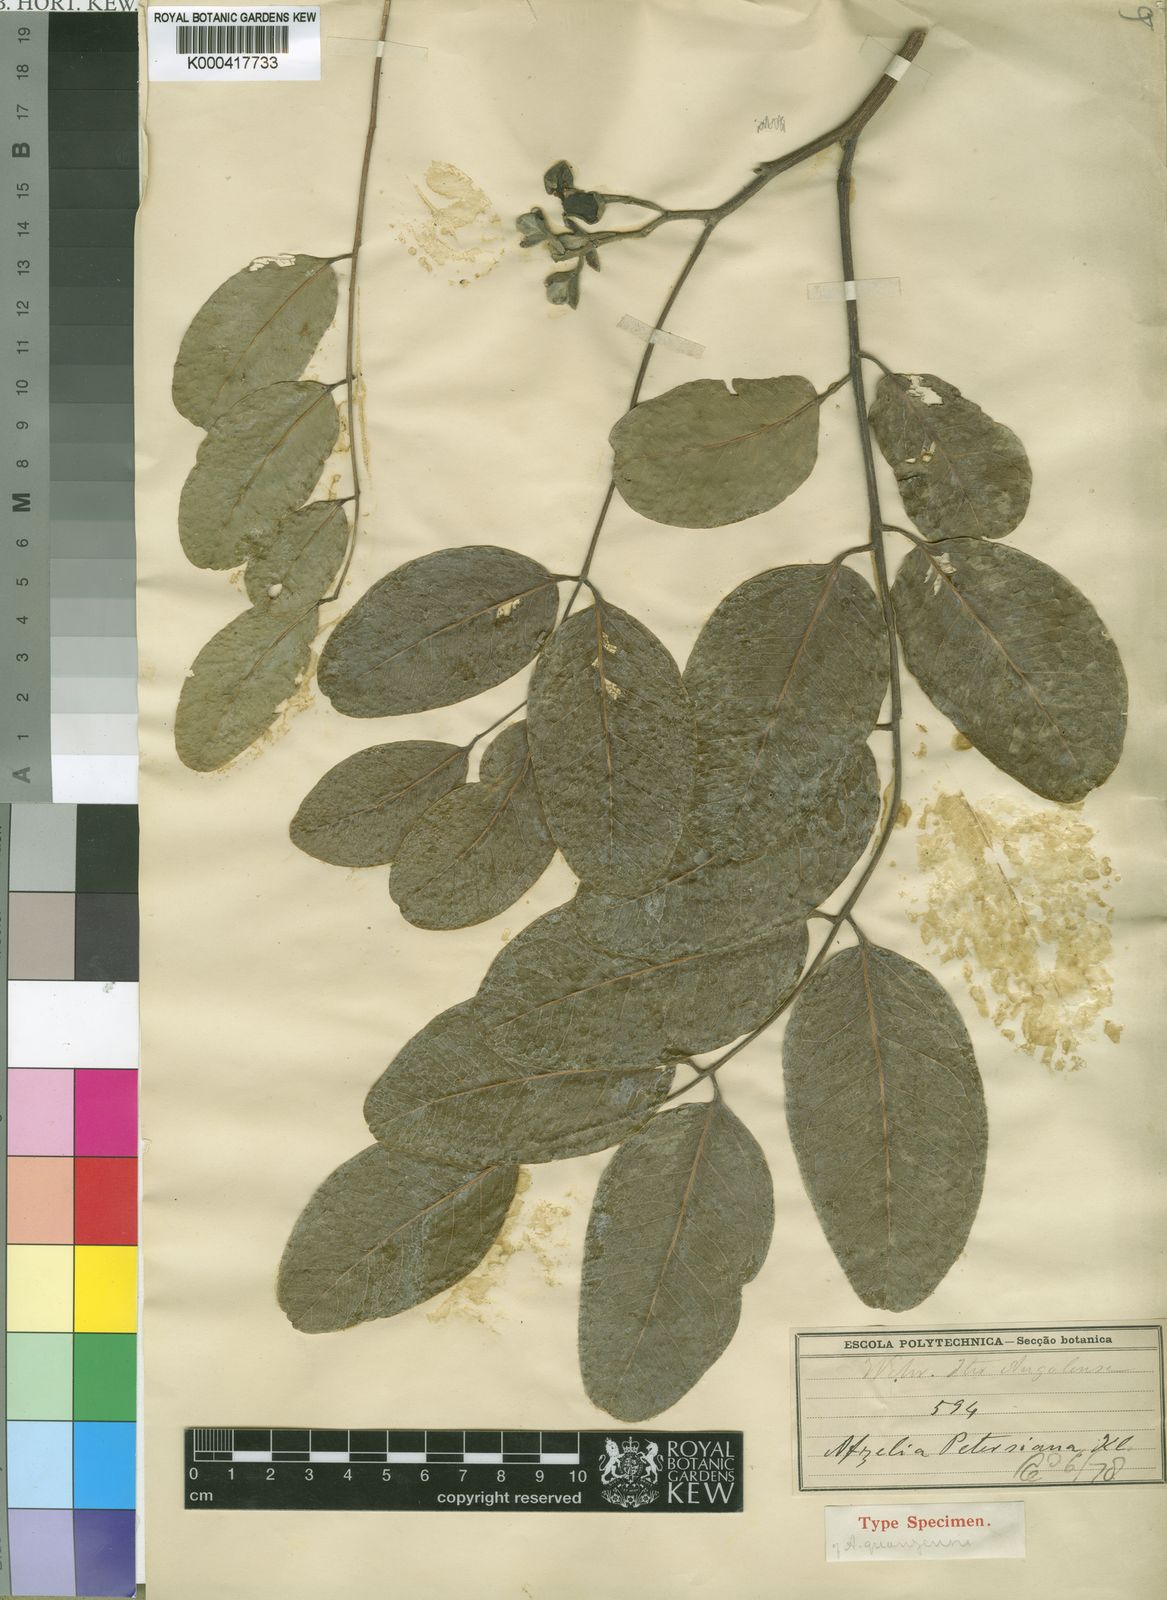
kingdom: Plantae
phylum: Tracheophyta
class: Magnoliopsida
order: Fabales
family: Fabaceae
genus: Afzelia
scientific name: Afzelia quanzensis
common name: Pod mahogany
